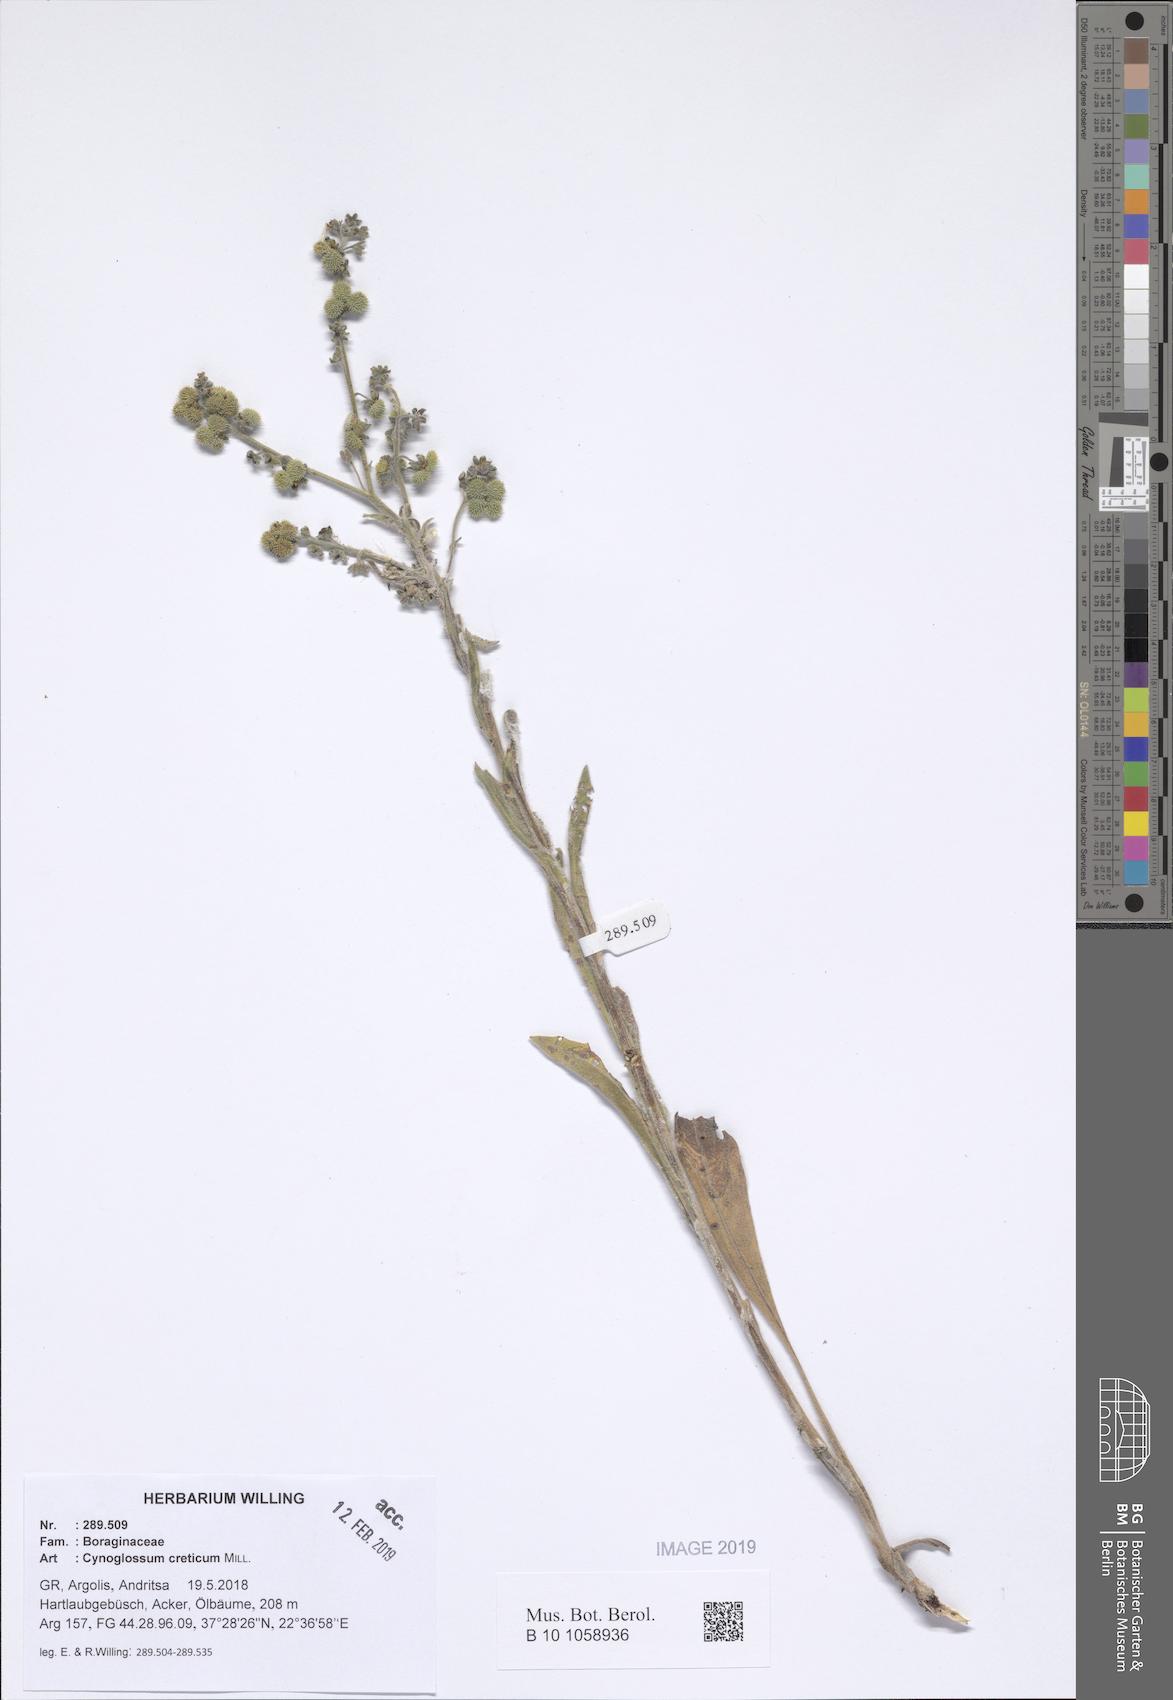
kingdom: Plantae
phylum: Tracheophyta
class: Magnoliopsida
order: Boraginales
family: Boraginaceae
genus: Cynoglossum
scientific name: Cynoglossum creticum
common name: Blue hound's tongue
